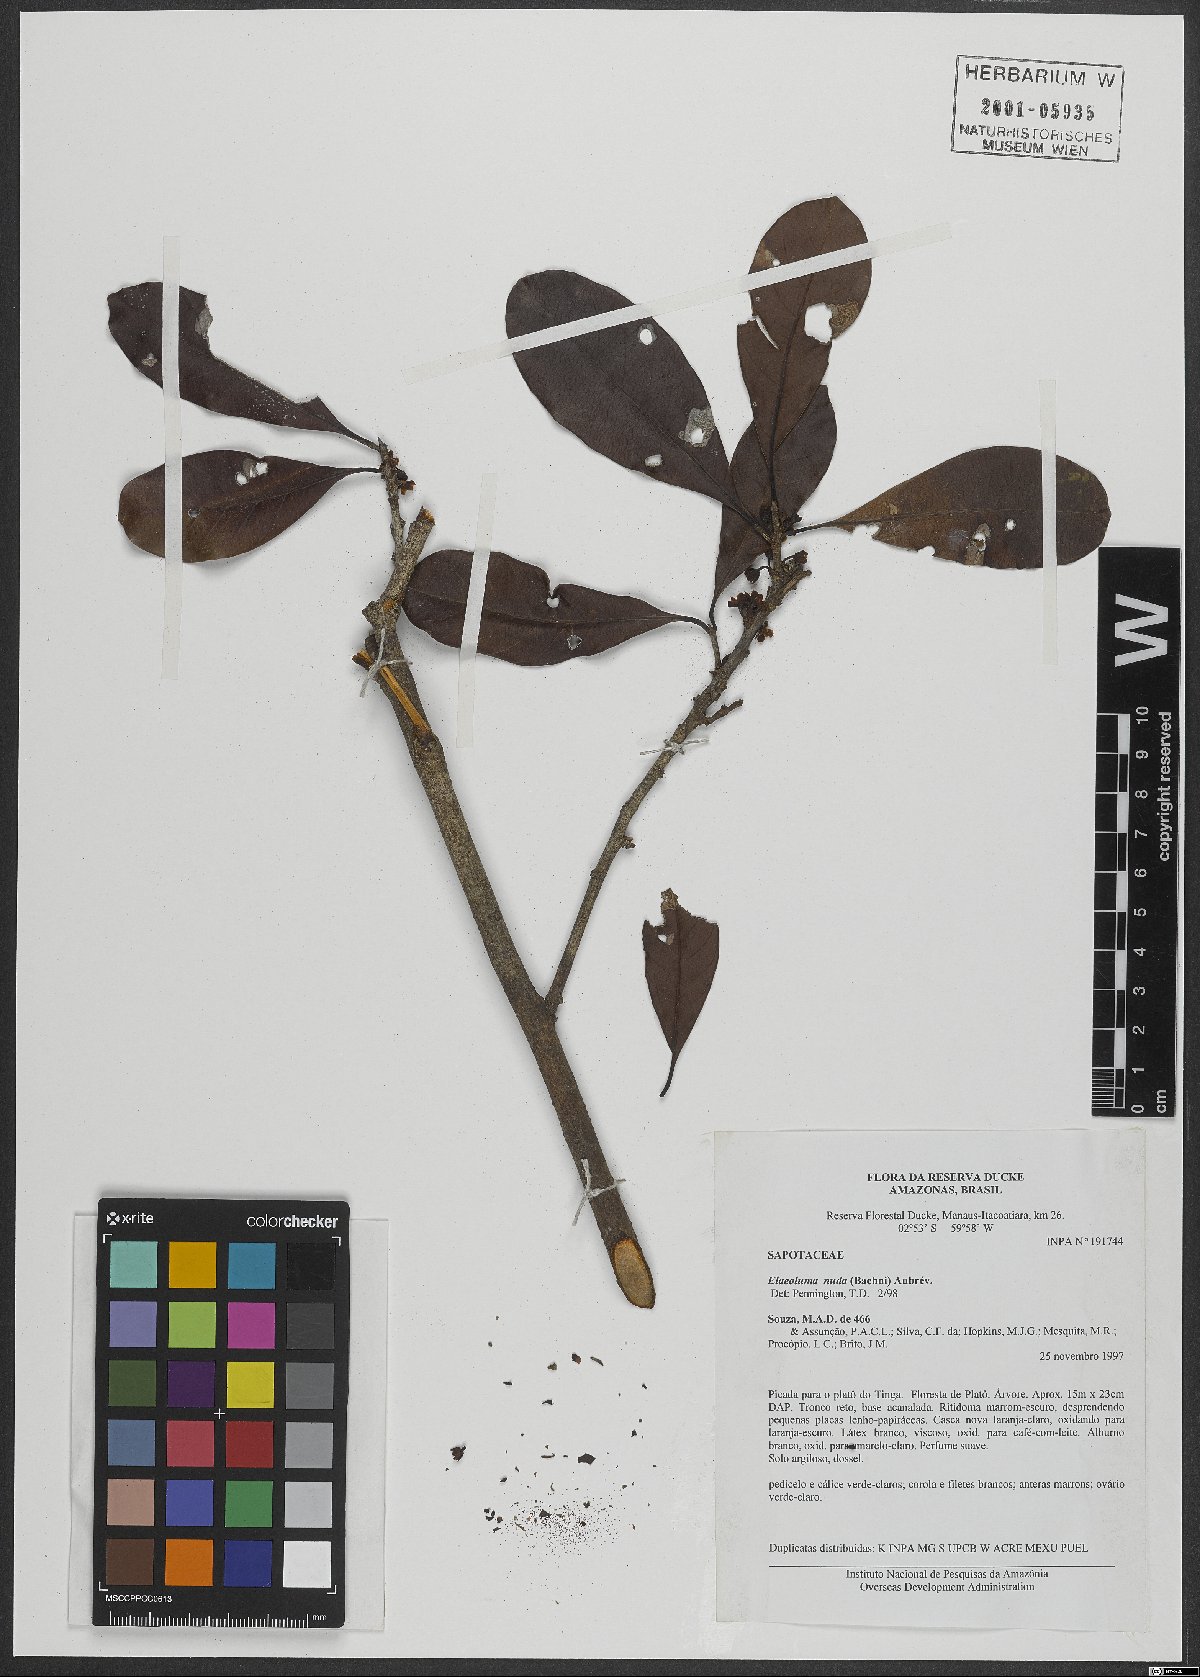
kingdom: Plantae
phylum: Tracheophyta
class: Magnoliopsida
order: Ericales
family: Sapotaceae
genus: Elaeoluma
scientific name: Elaeoluma nuda
